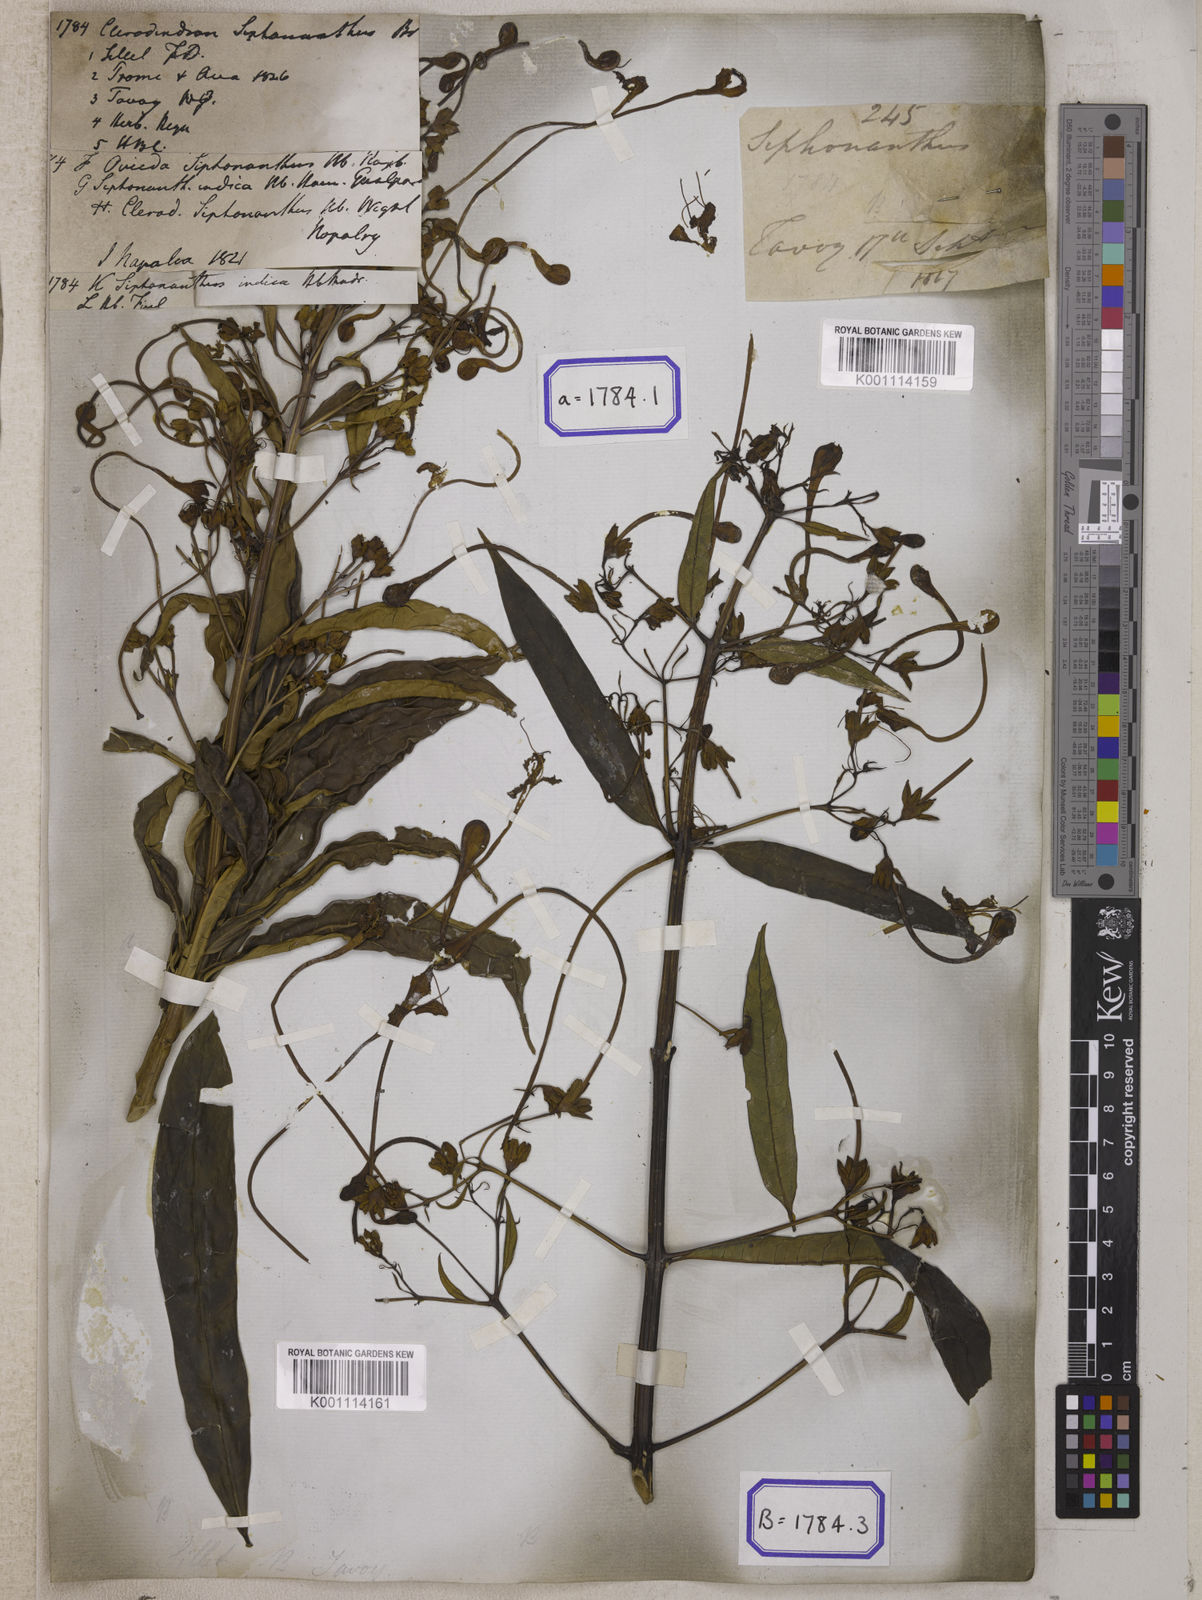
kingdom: Plantae
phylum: Tracheophyta
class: Magnoliopsida
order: Lamiales
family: Lamiaceae
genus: Clerodendrum
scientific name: Clerodendrum indicum
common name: Turk's turbin
